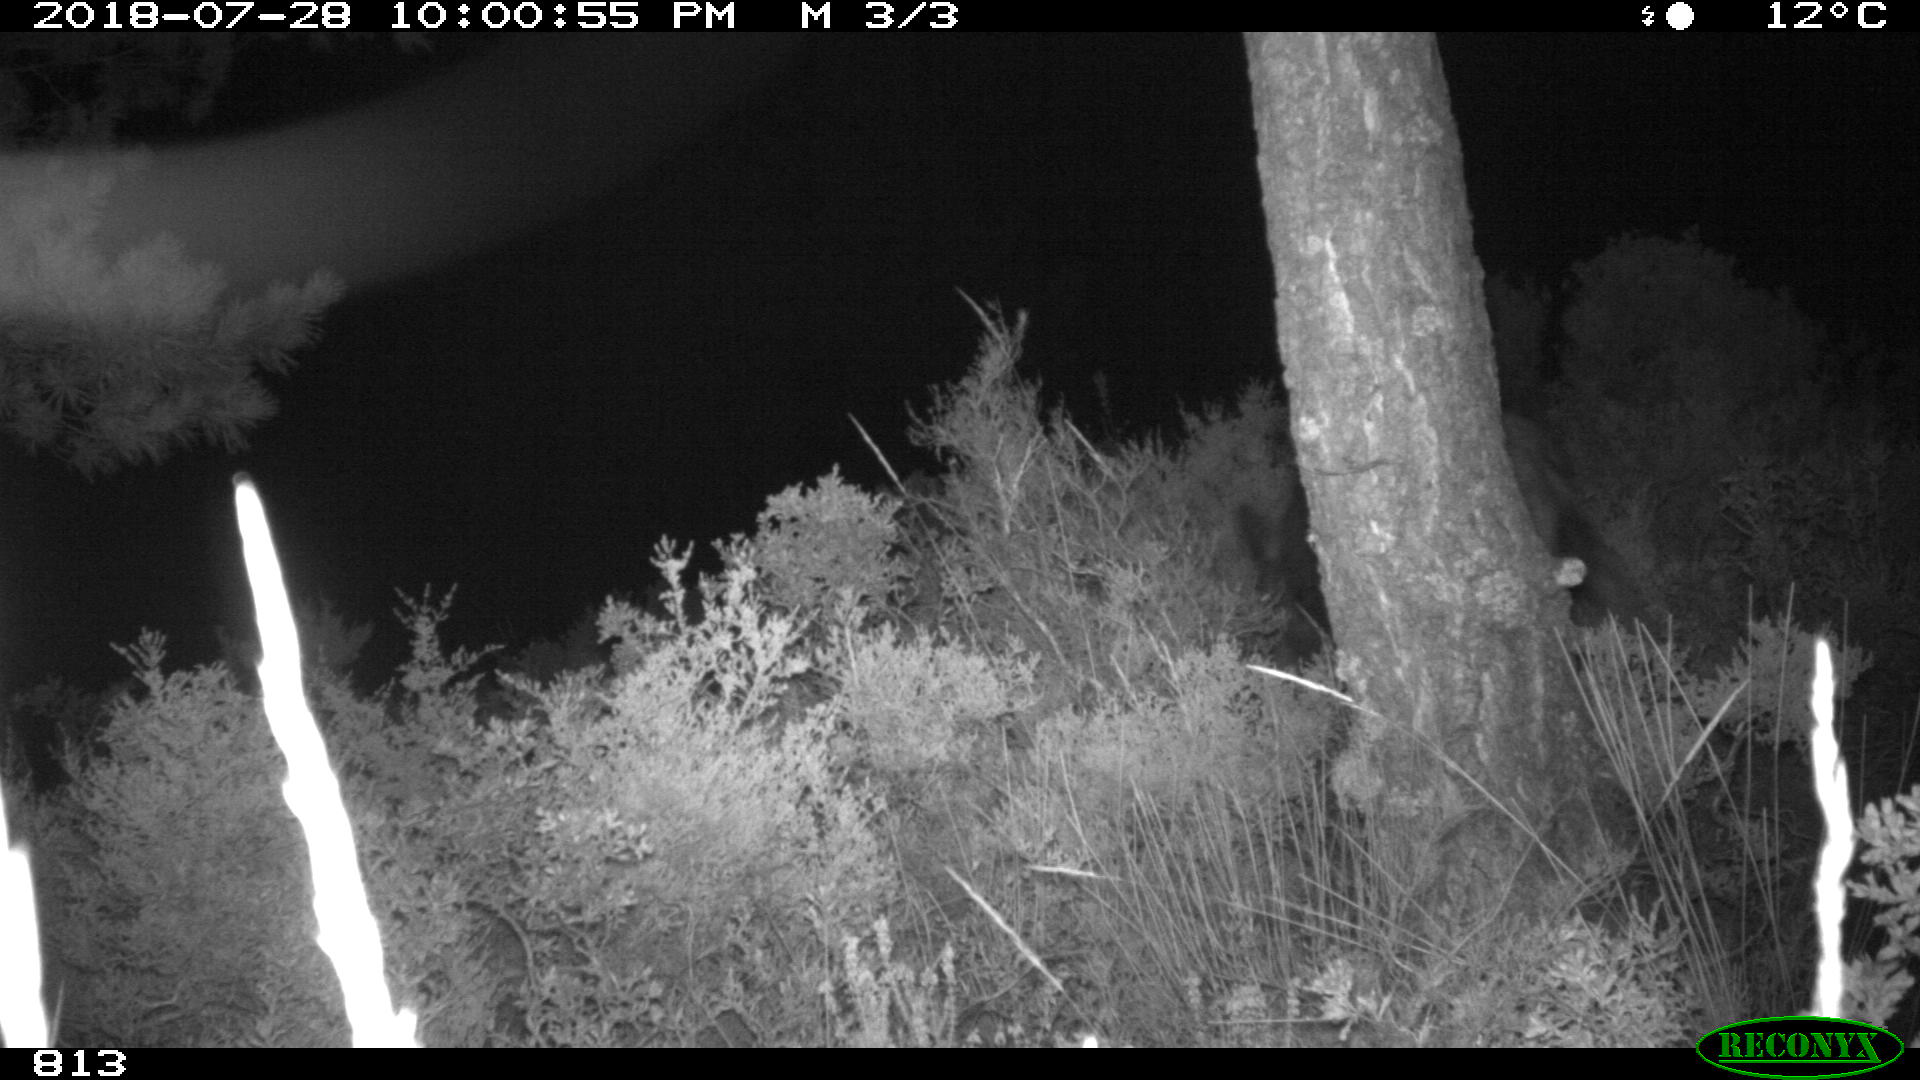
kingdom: Animalia
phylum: Chordata
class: Mammalia
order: Artiodactyla
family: Suidae
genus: Sus
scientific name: Sus scrofa
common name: Wild boar
